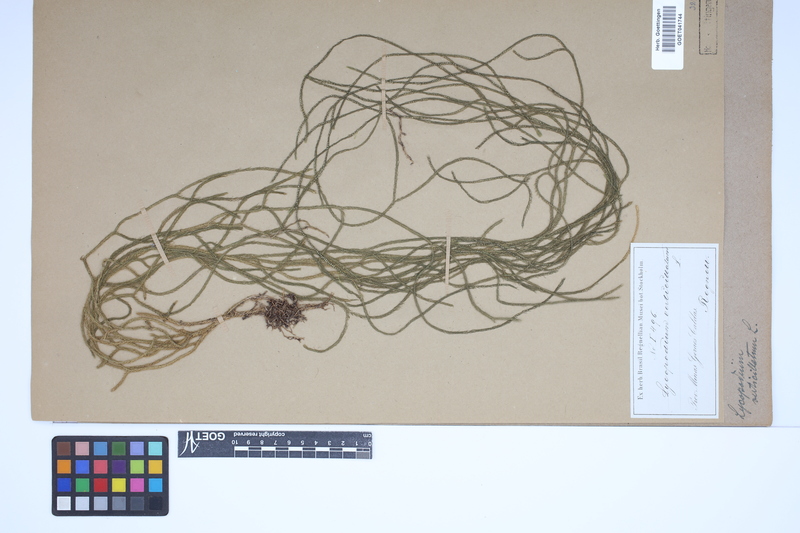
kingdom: Plantae
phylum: Tracheophyta
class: Lycopodiopsida
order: Lycopodiales
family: Lycopodiaceae
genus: Phlegmariurus
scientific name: Phlegmariurus verticillatus
